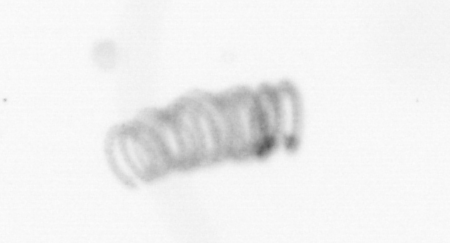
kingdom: Chromista
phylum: Ochrophyta
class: Bacillariophyceae
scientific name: Bacillariophyceae
